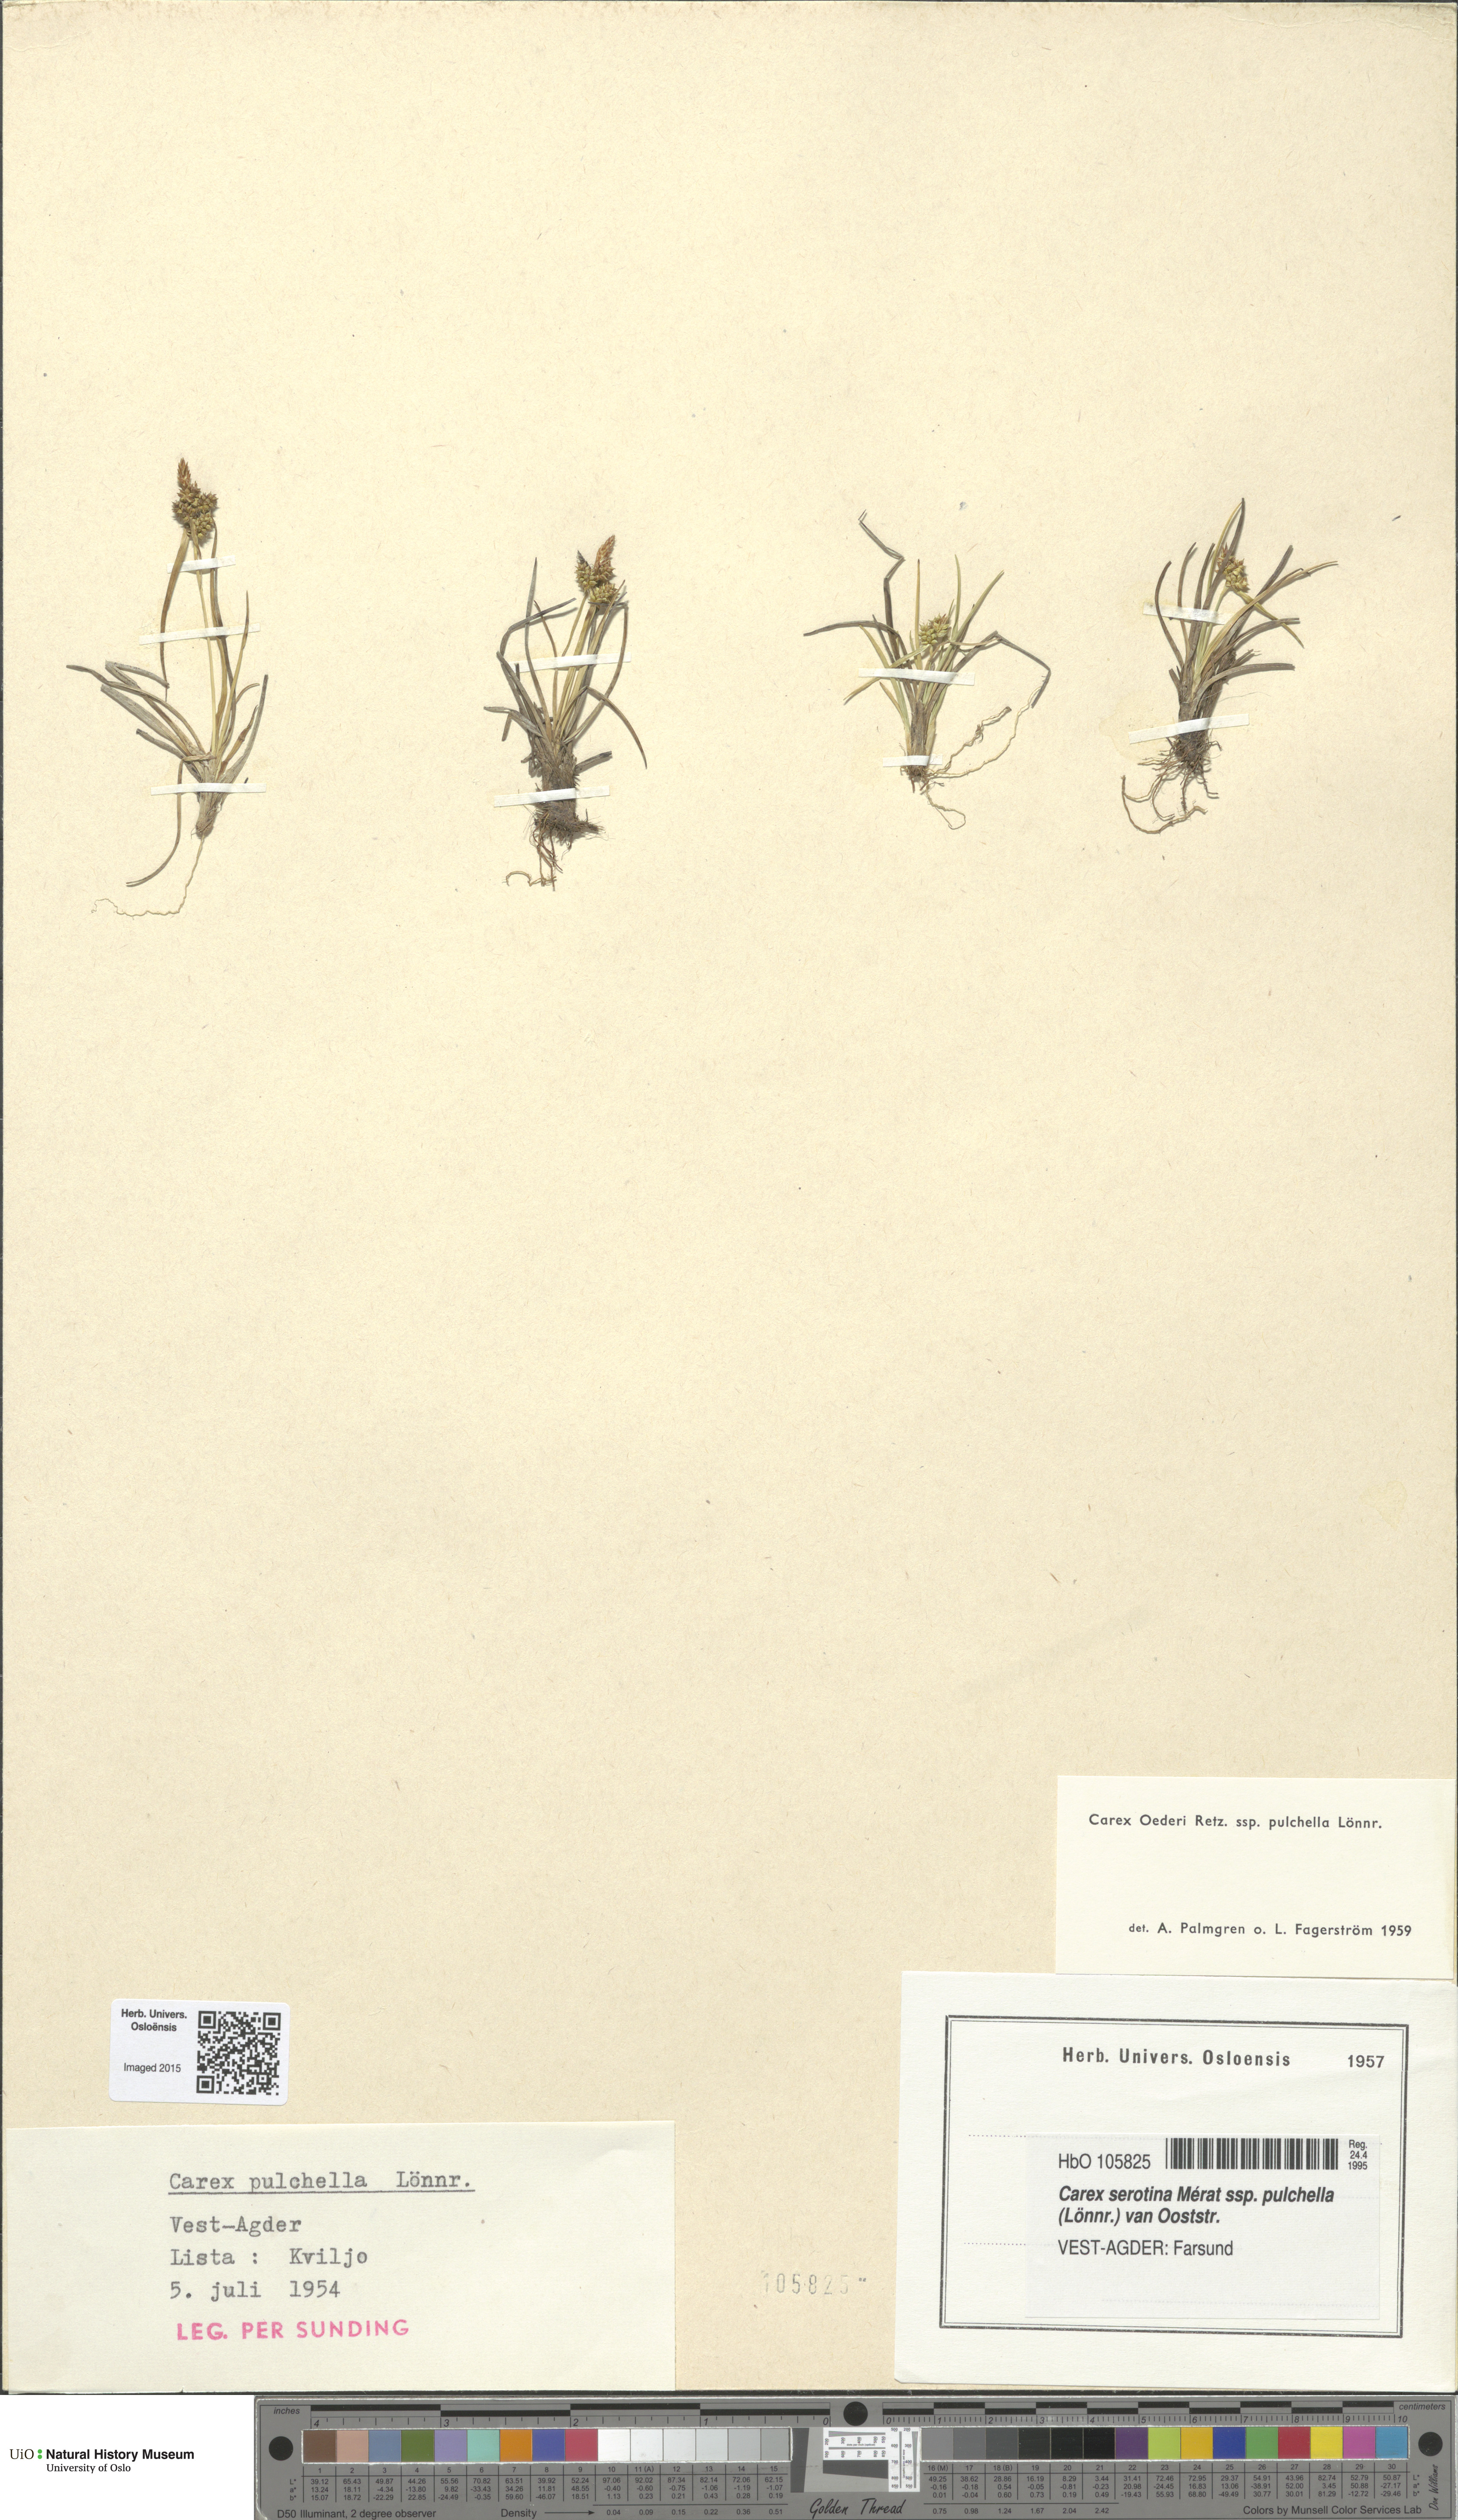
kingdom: Plantae
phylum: Tracheophyta
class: Liliopsida
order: Poales
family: Cyperaceae
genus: Carex
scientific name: Carex oederi
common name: Common & small-fruited yellow-sedge
